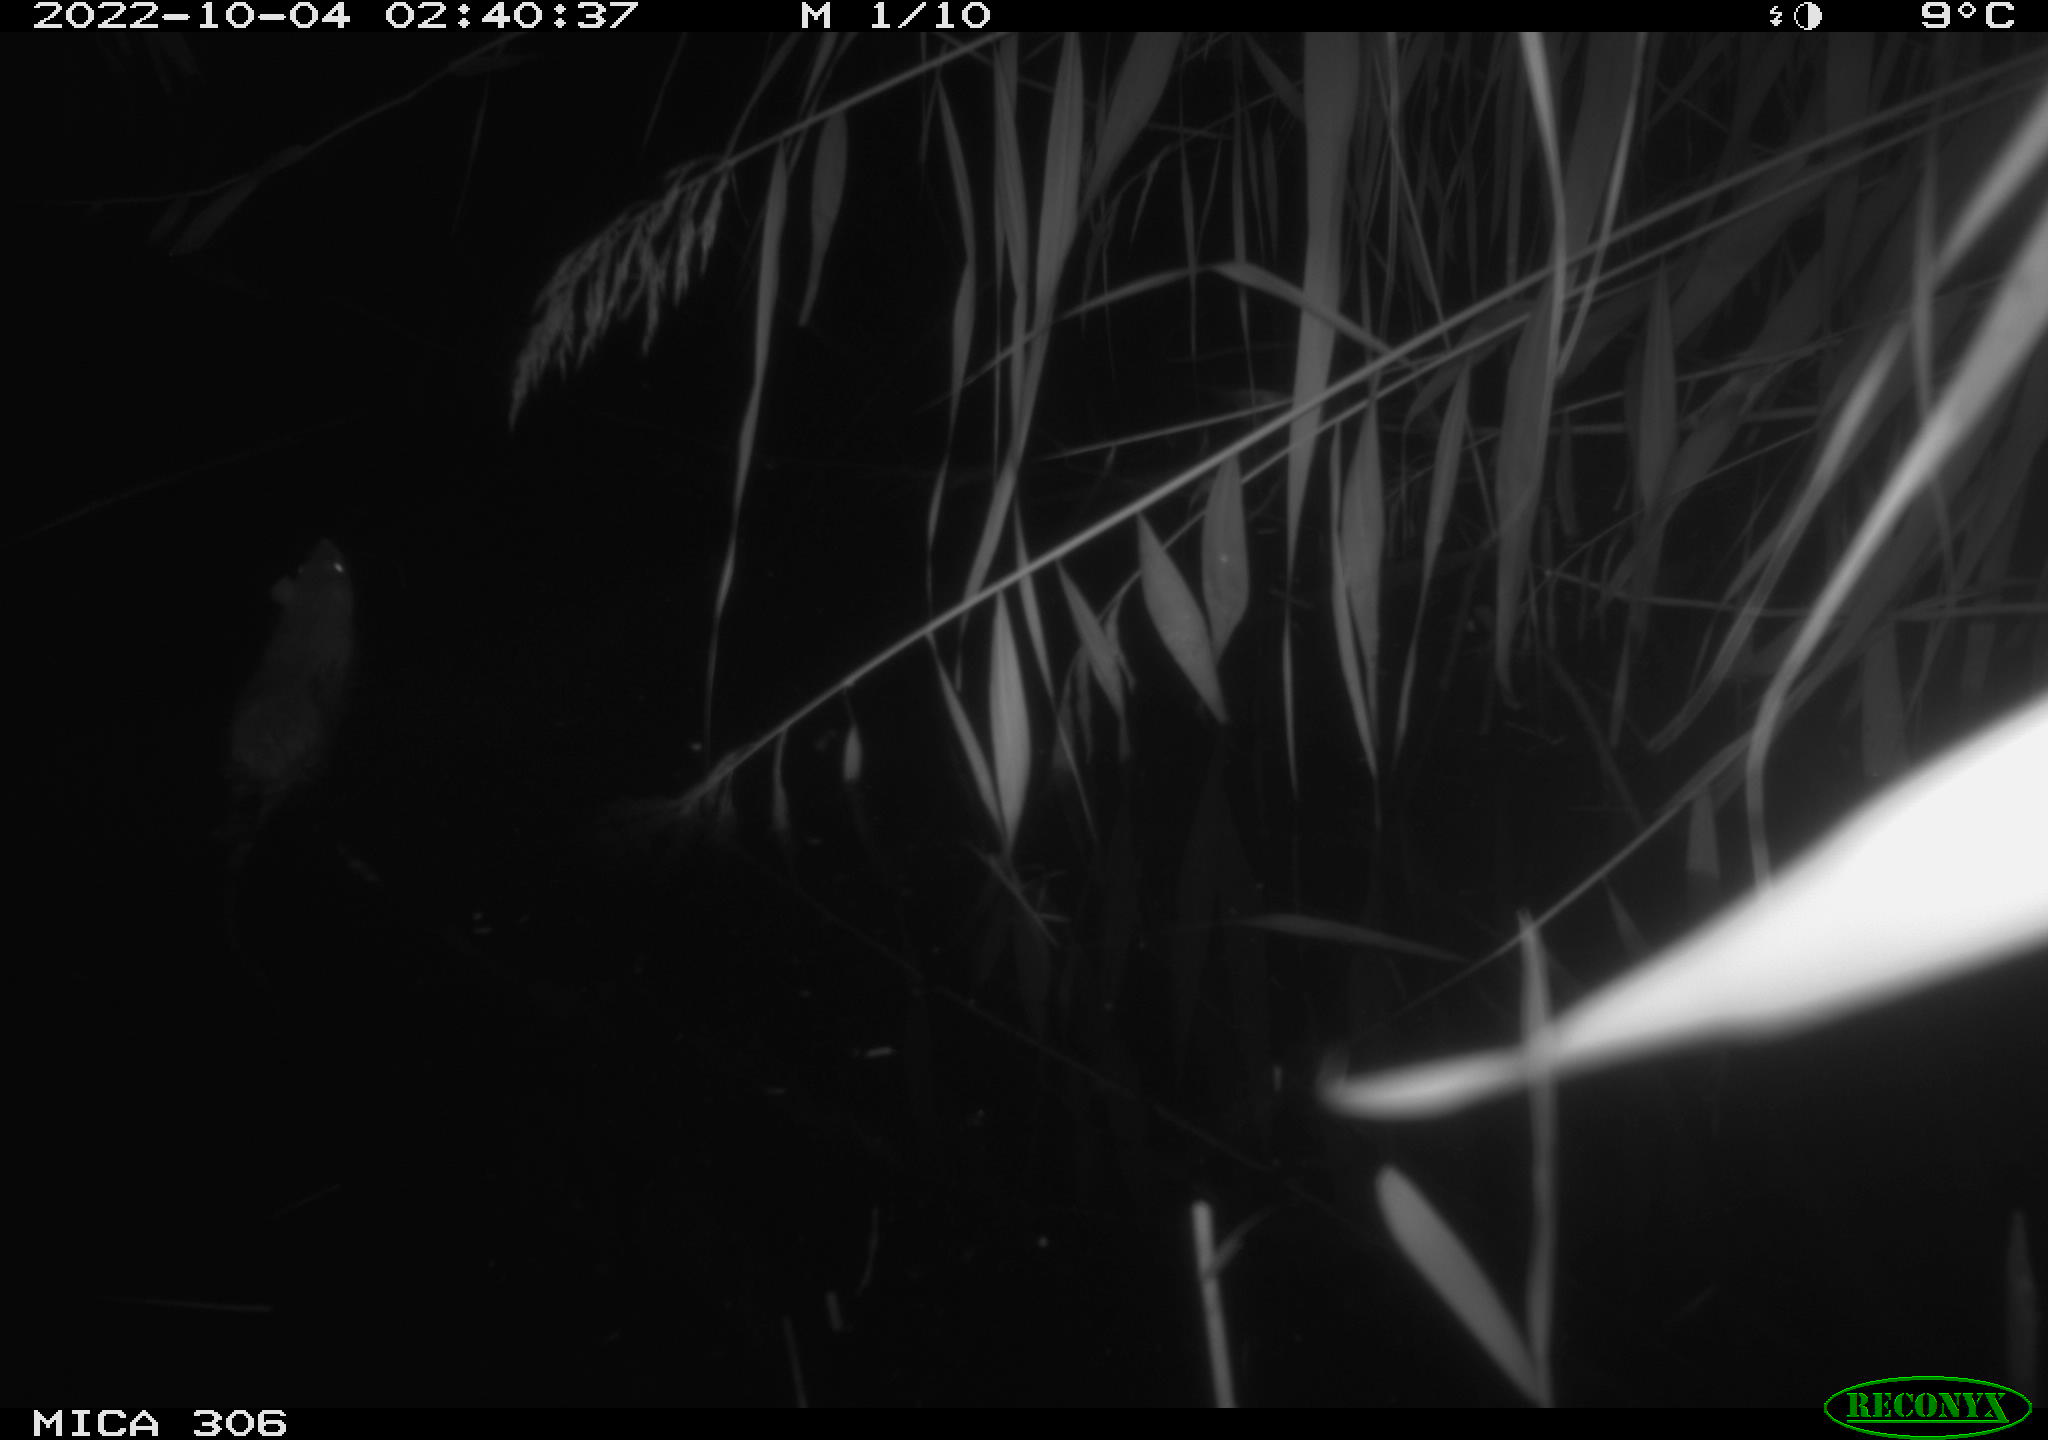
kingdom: Animalia
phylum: Chordata
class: Mammalia
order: Rodentia
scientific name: Rodentia
